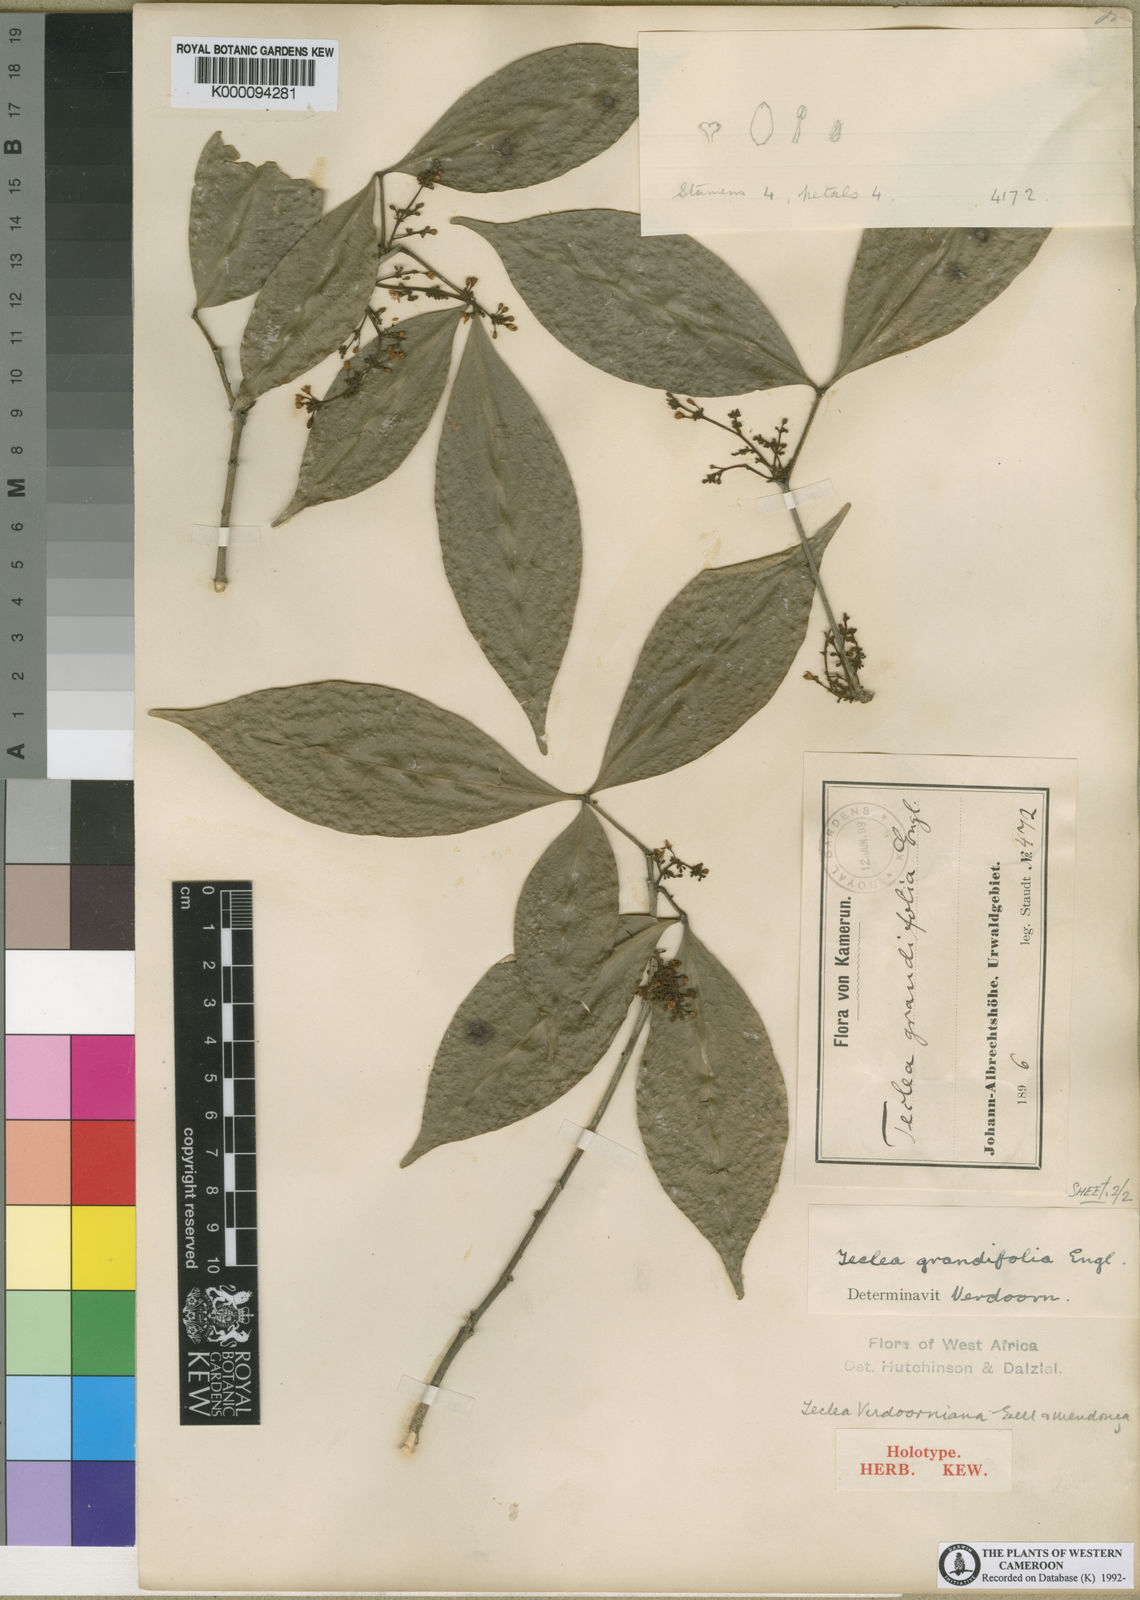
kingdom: Plantae
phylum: Tracheophyta
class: Magnoliopsida
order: Sapindales
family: Rutaceae
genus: Vepris
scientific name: Vepris
